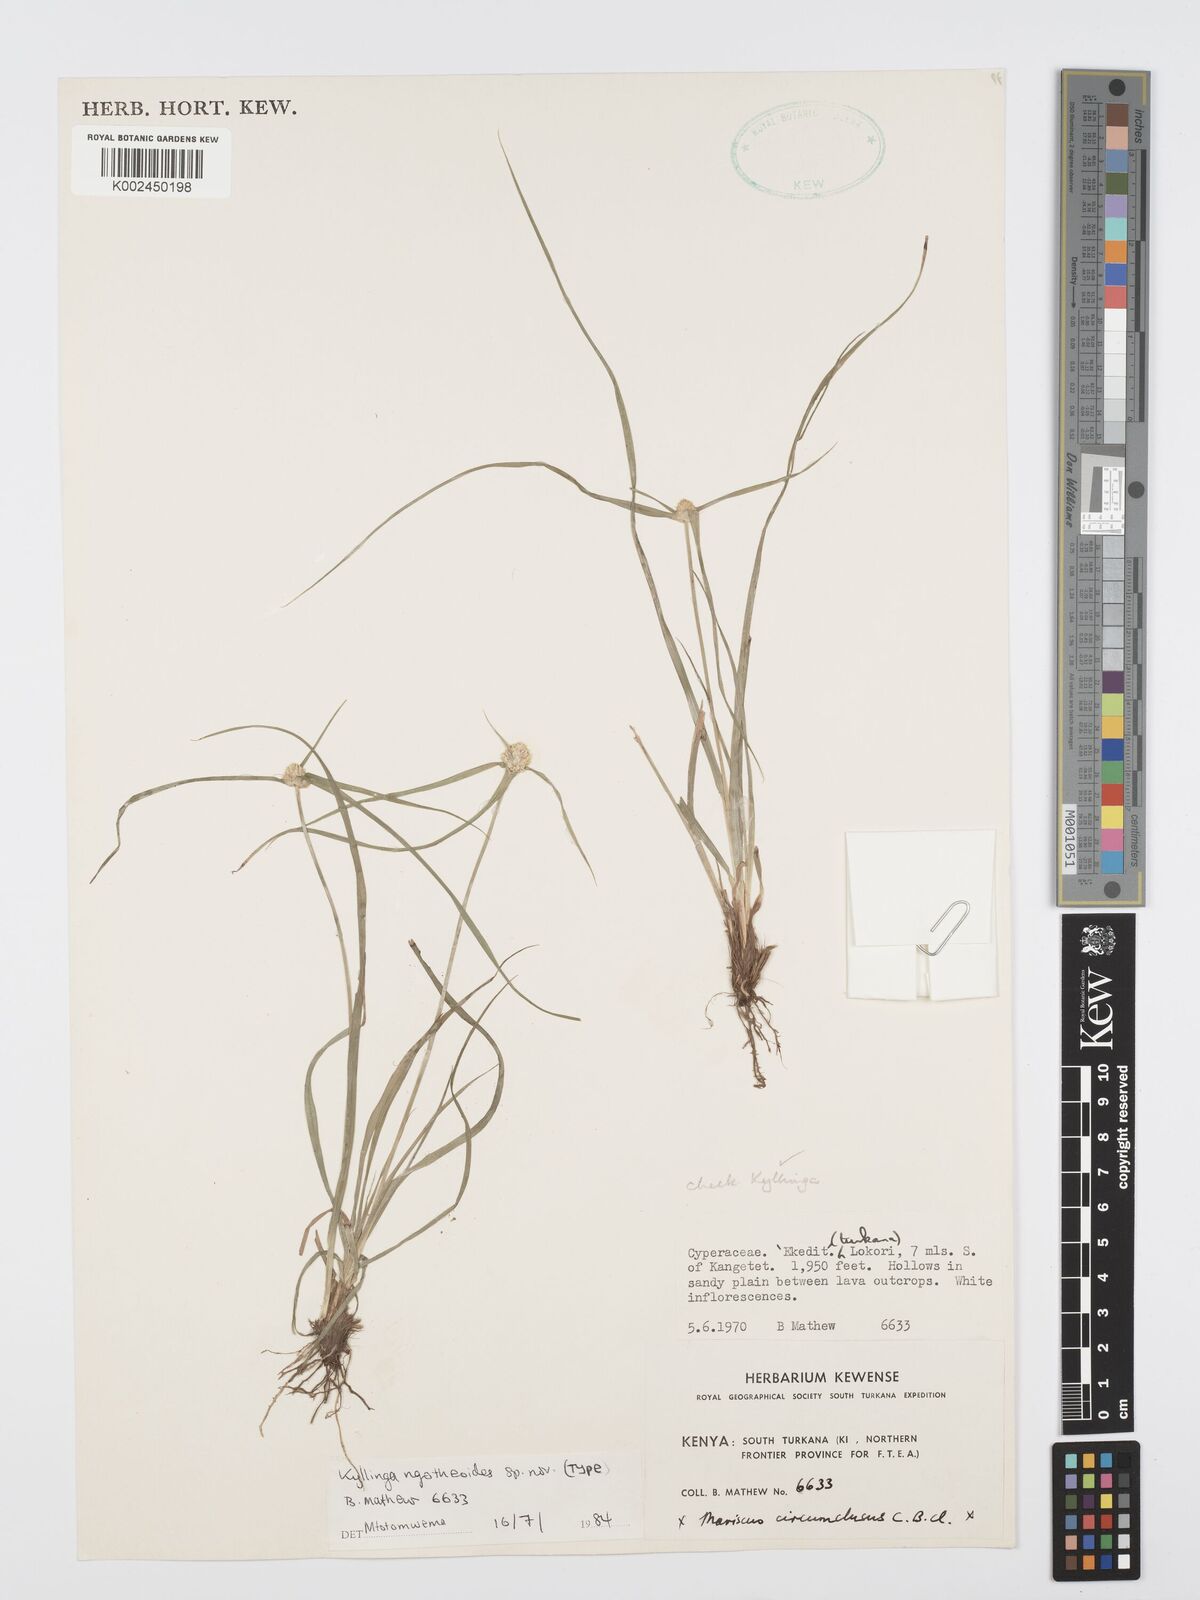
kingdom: Plantae
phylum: Tracheophyta
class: Liliopsida
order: Poales
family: Cyperaceae
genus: Cyperus
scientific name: Cyperus
